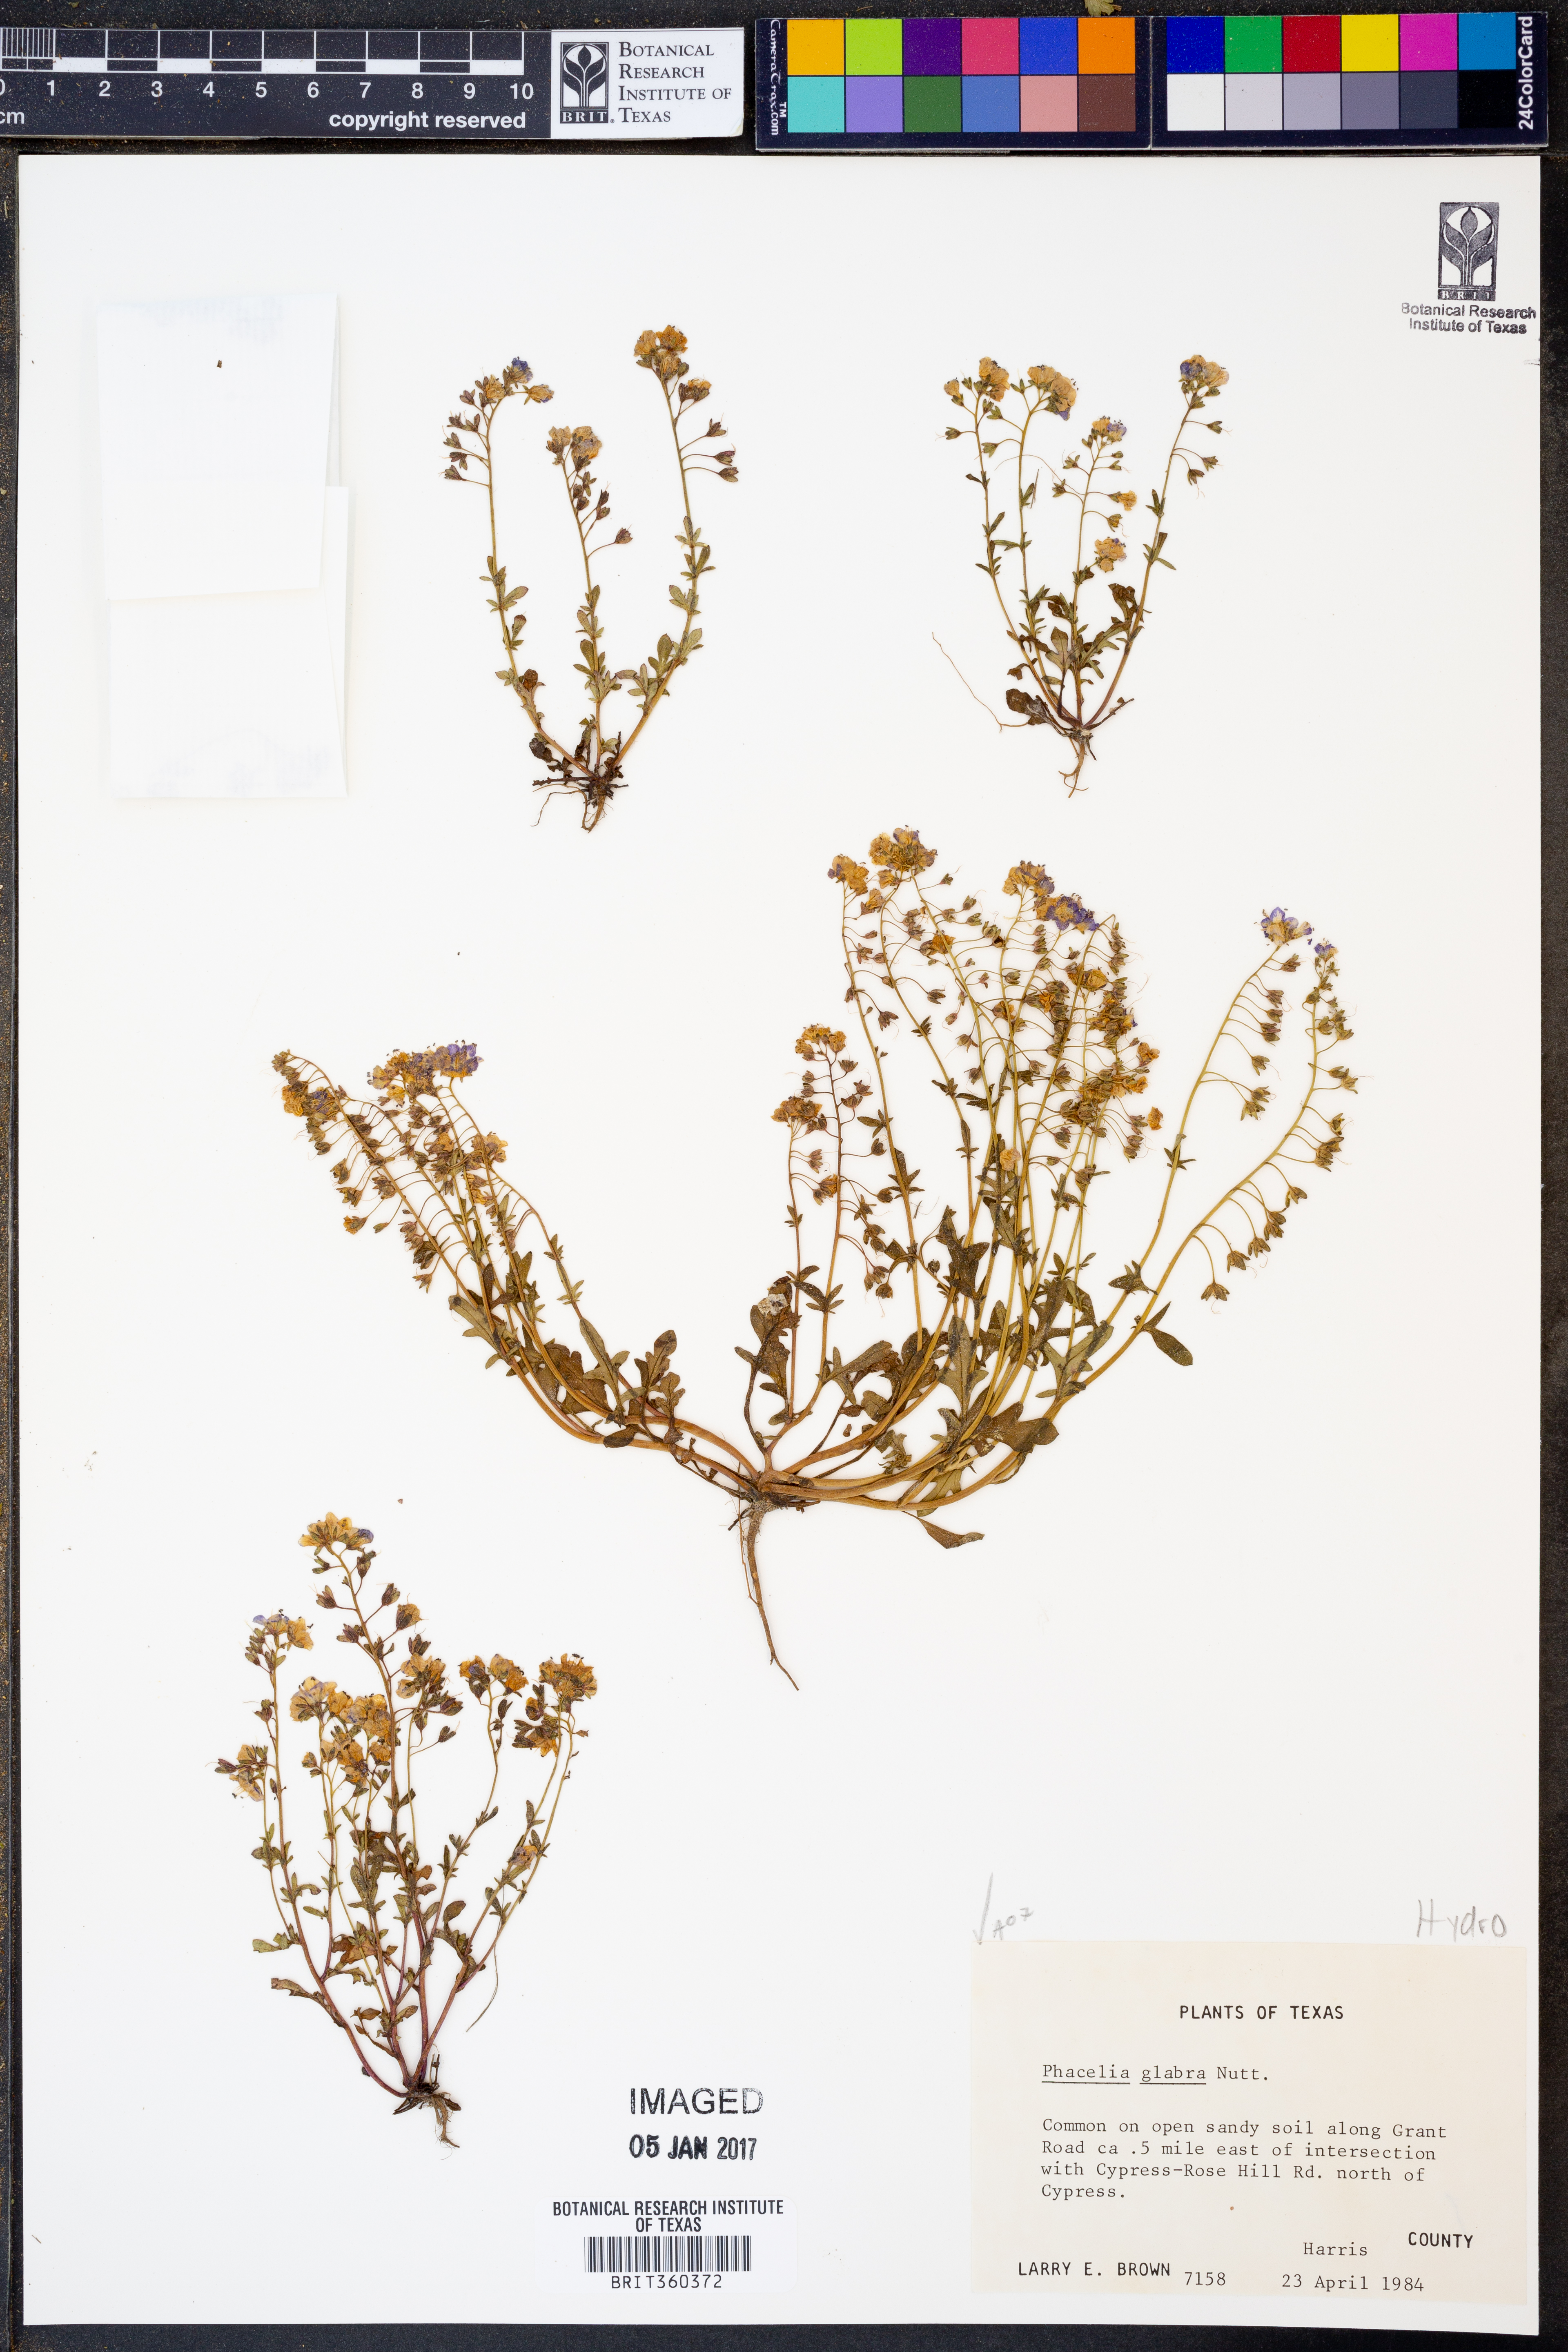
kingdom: Plantae
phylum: Tracheophyta
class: Magnoliopsida
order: Boraginales
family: Hydrophyllaceae
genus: Phacelia
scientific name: Phacelia glabra
